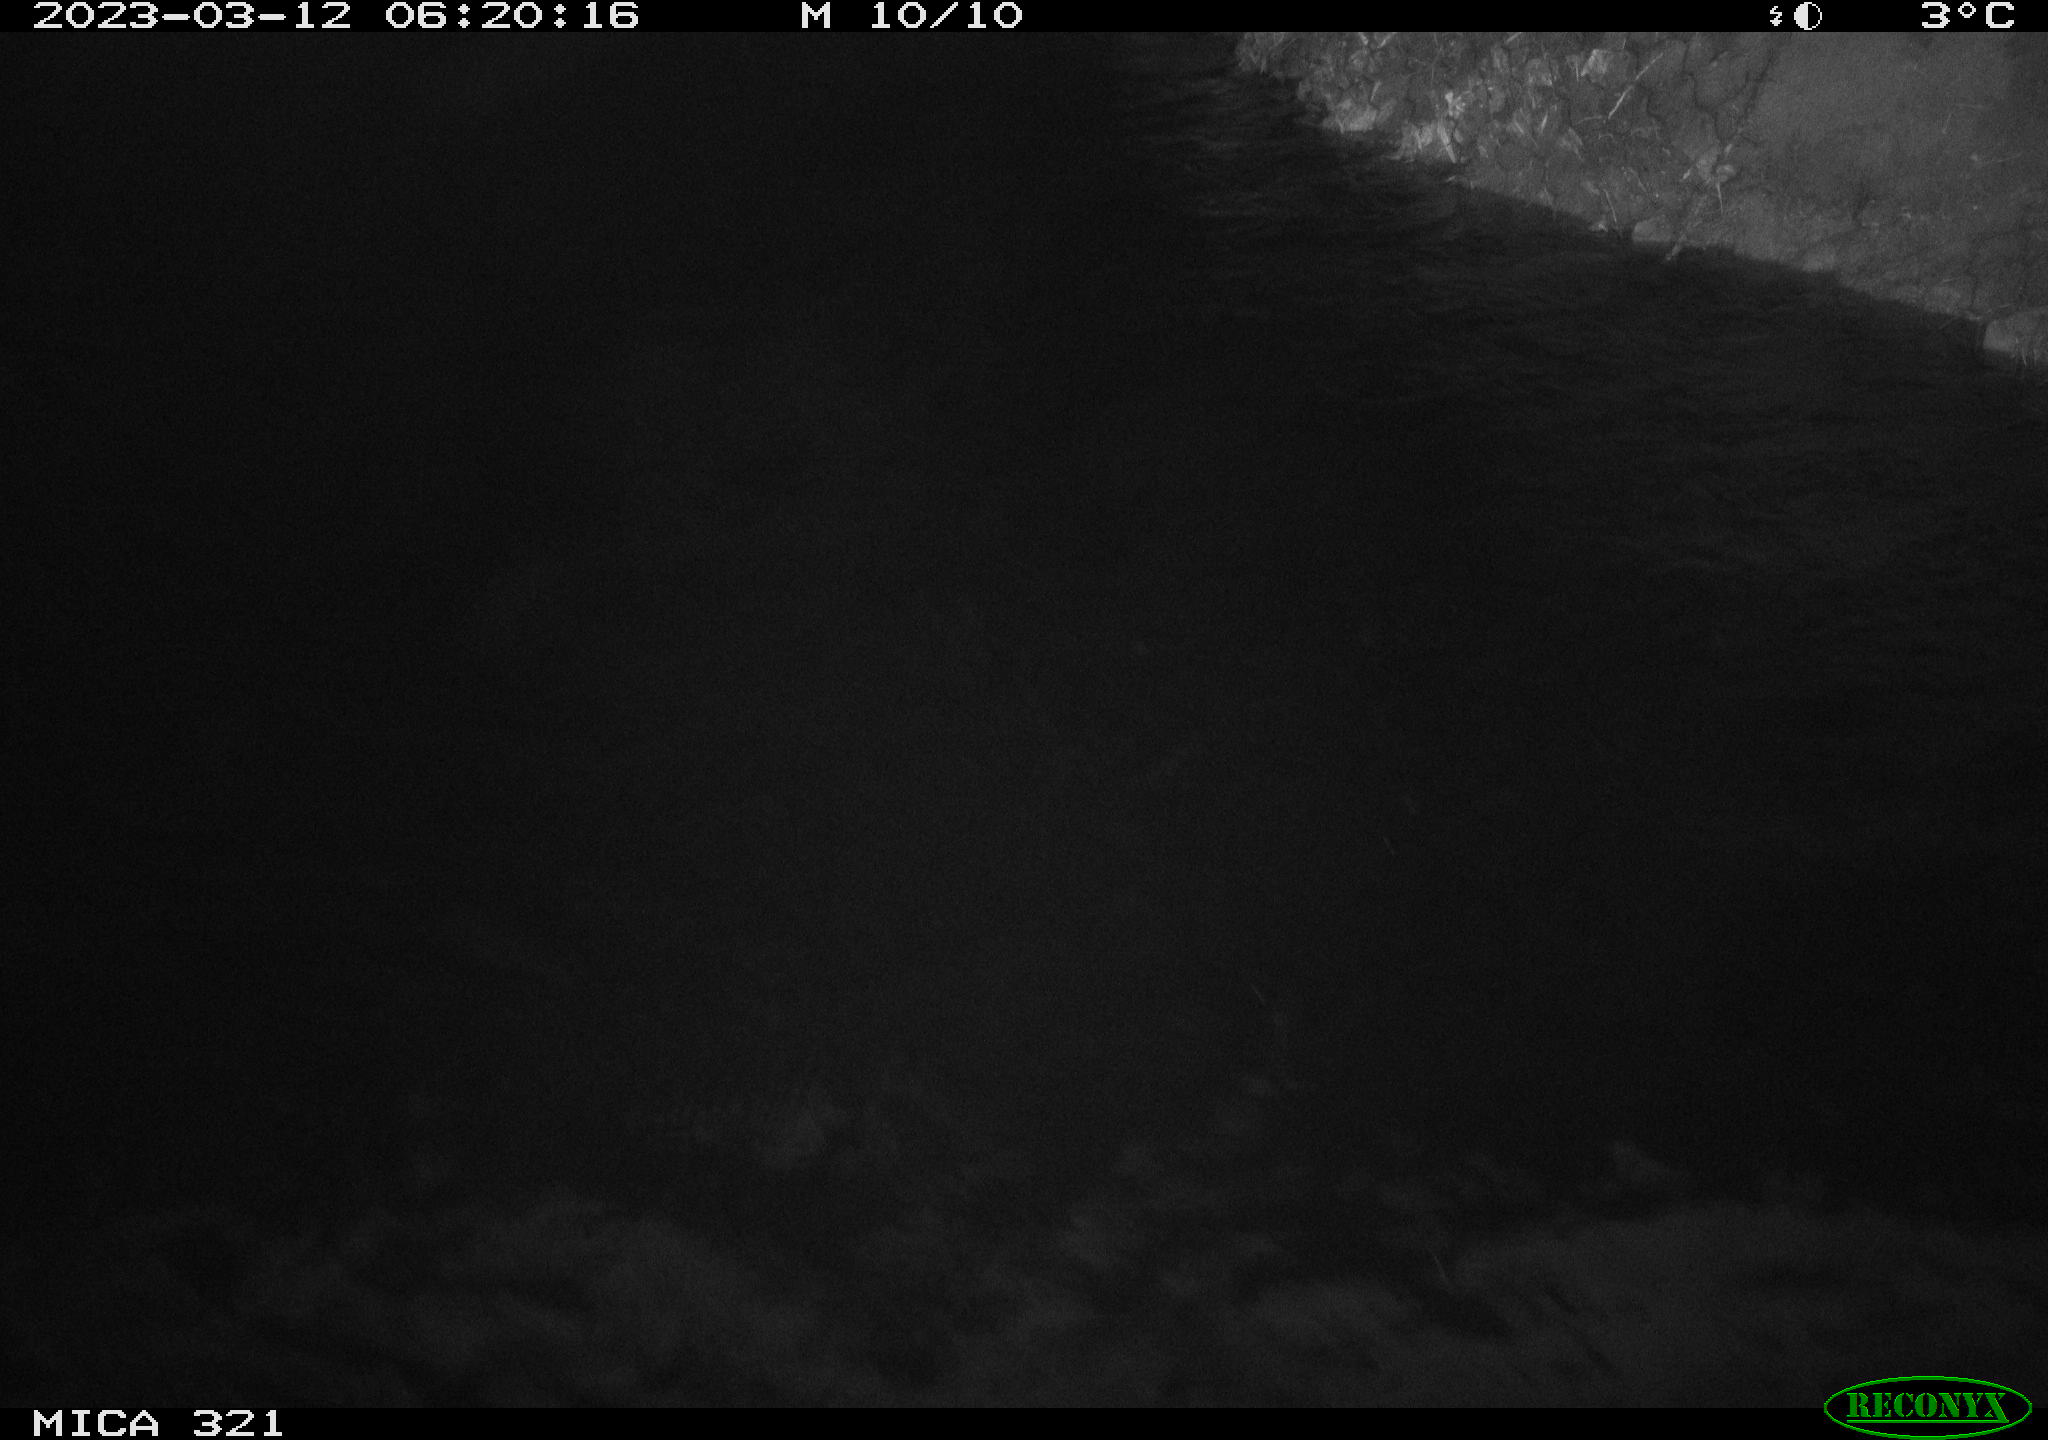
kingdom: Animalia
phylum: Chordata
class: Aves
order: Anseriformes
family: Anatidae
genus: Anas
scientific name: Anas
